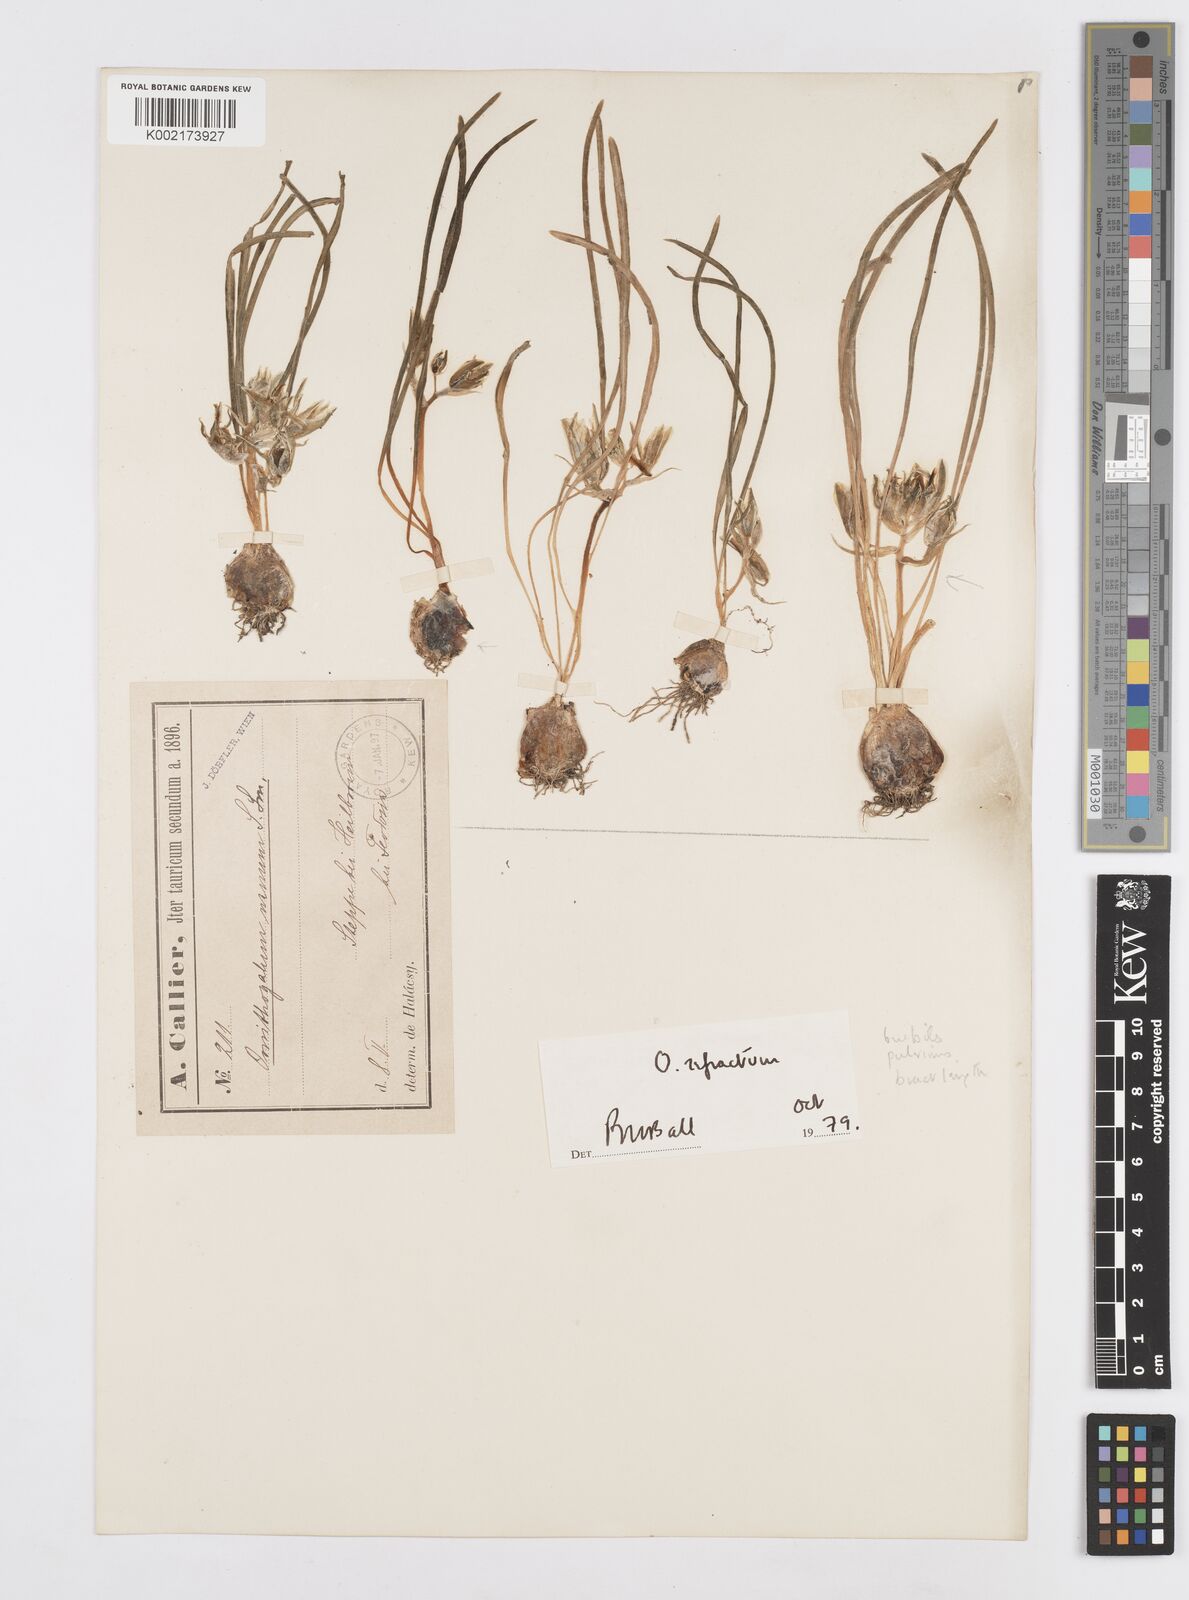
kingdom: Plantae
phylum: Tracheophyta
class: Liliopsida
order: Asparagales
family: Asparagaceae
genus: Ornithogalum
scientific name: Ornithogalum refractum
